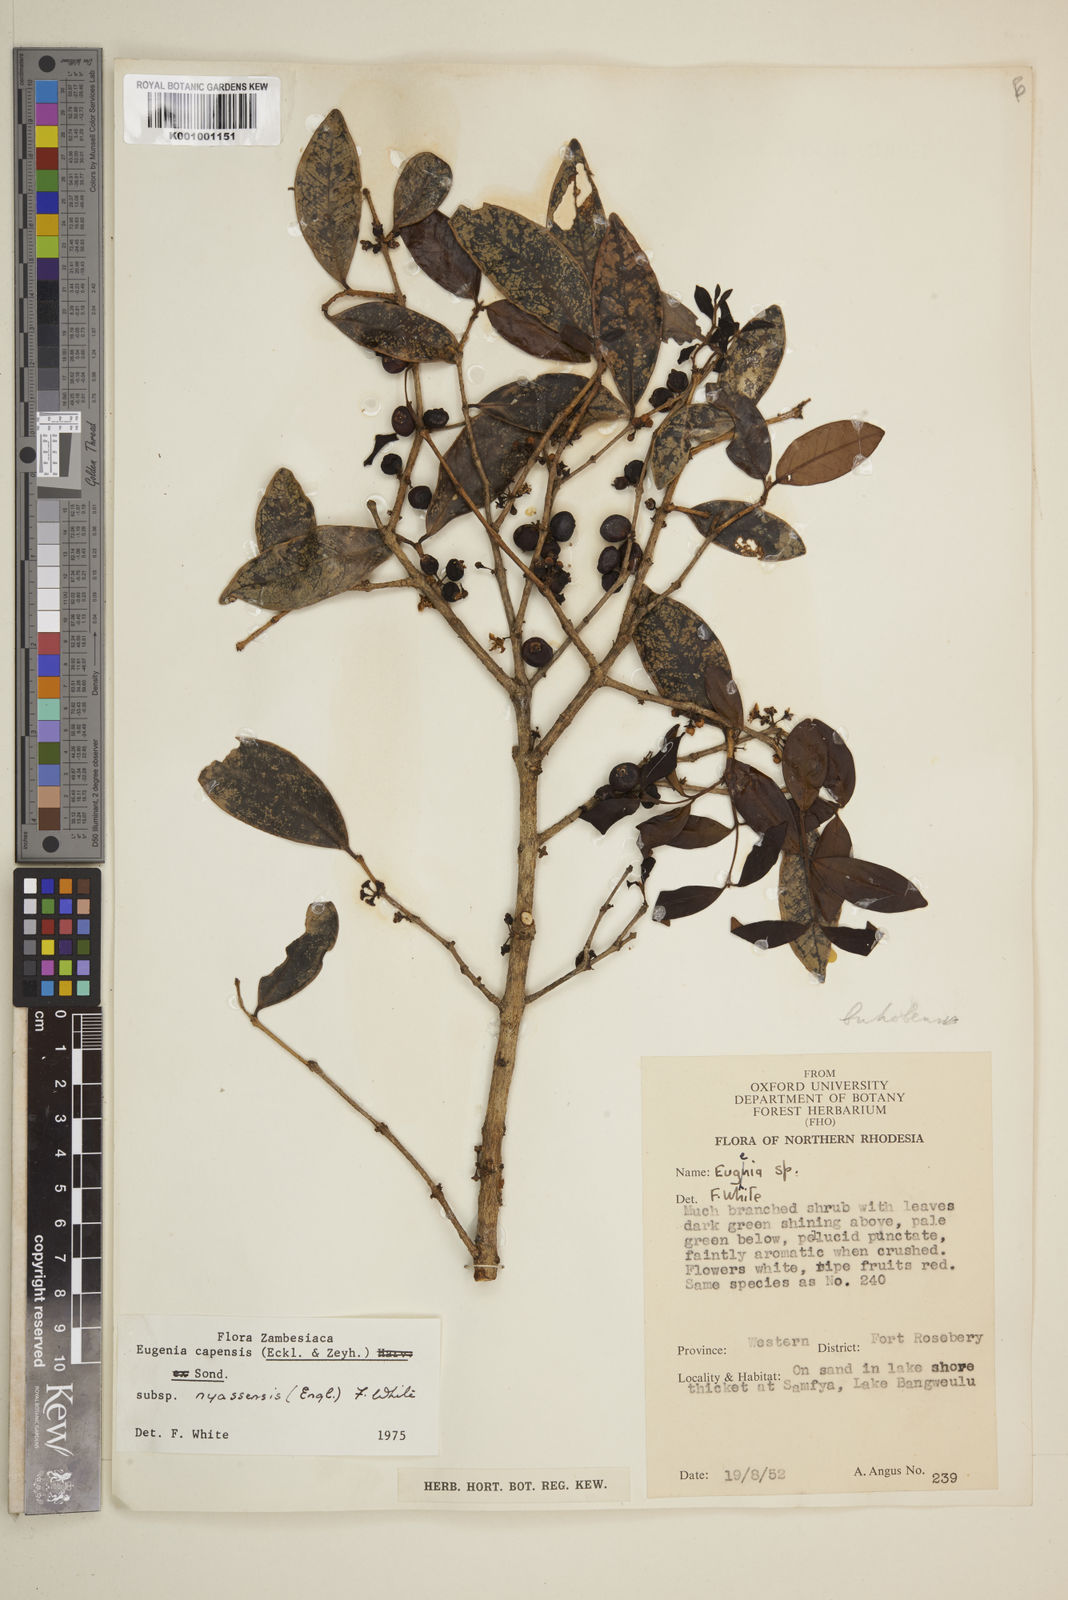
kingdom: Plantae
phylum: Tracheophyta
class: Magnoliopsida
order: Myrtales
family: Myrtaceae
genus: Eugenia
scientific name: Eugenia capensis
